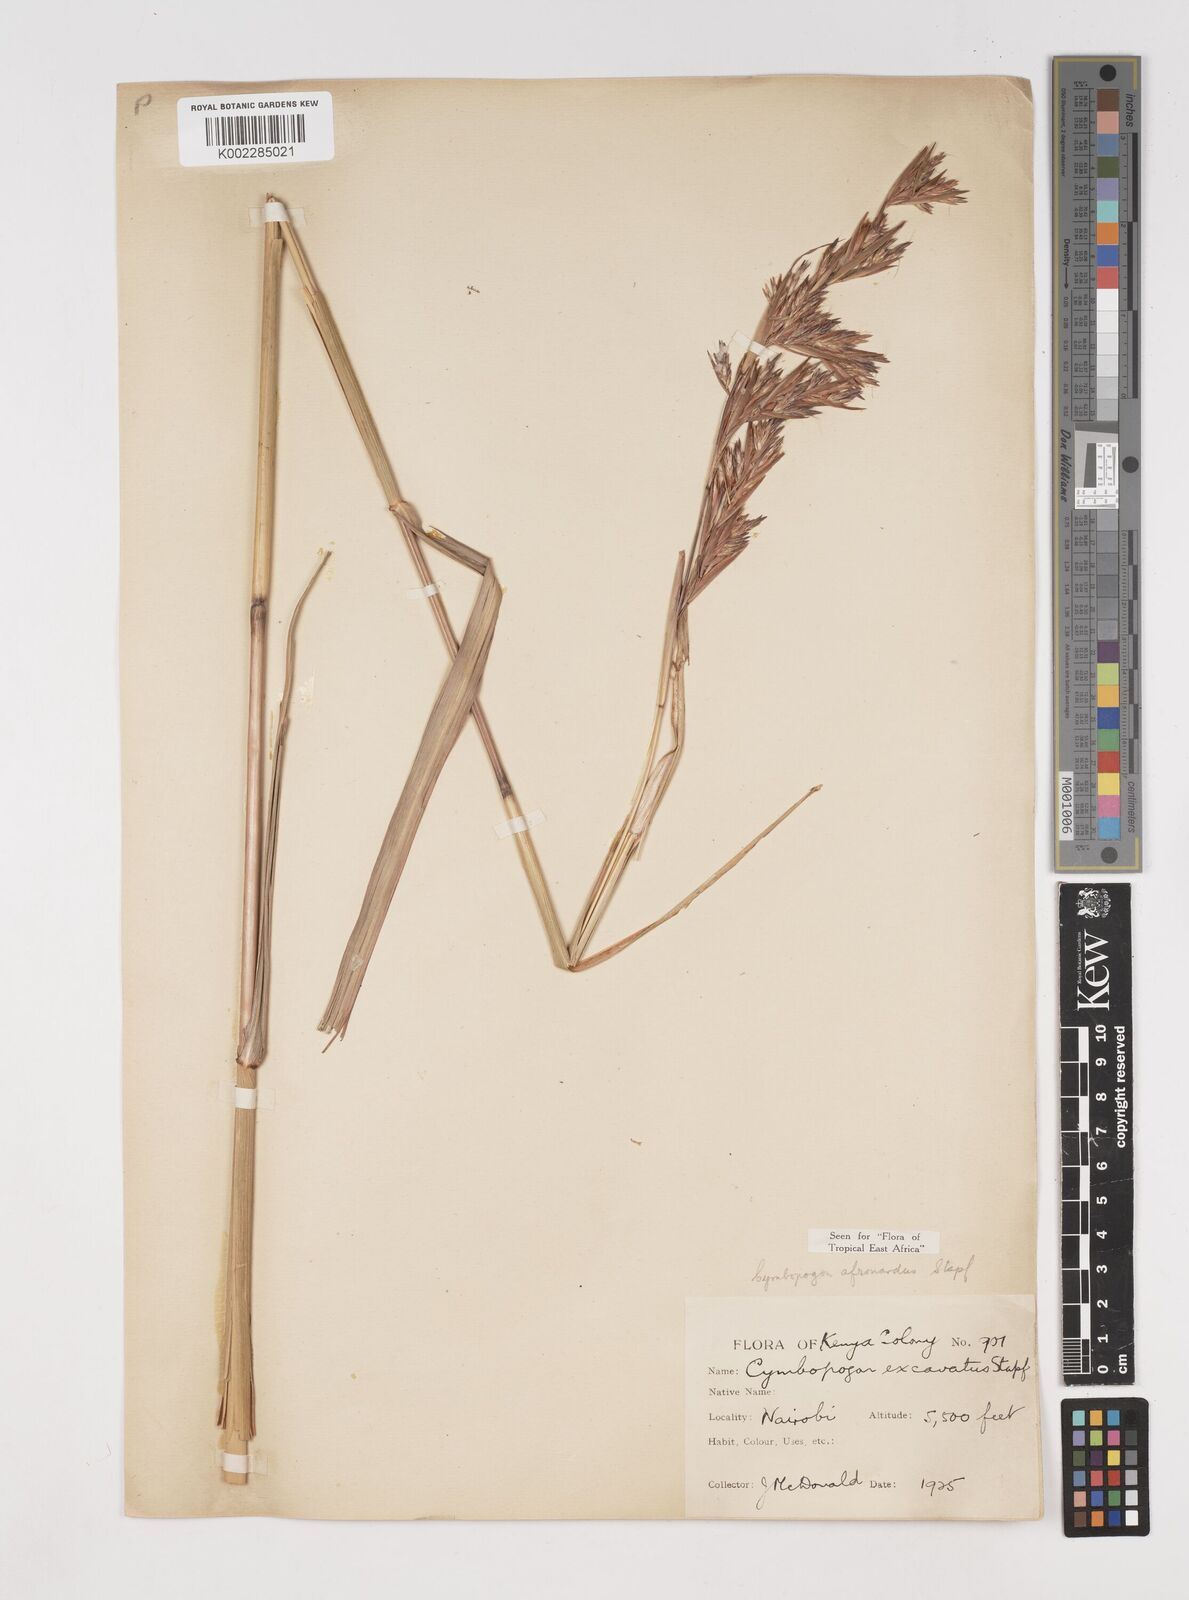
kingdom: Plantae
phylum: Tracheophyta
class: Liliopsida
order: Poales
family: Poaceae
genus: Cymbopogon
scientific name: Cymbopogon nardus
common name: Giant turpentine grass
